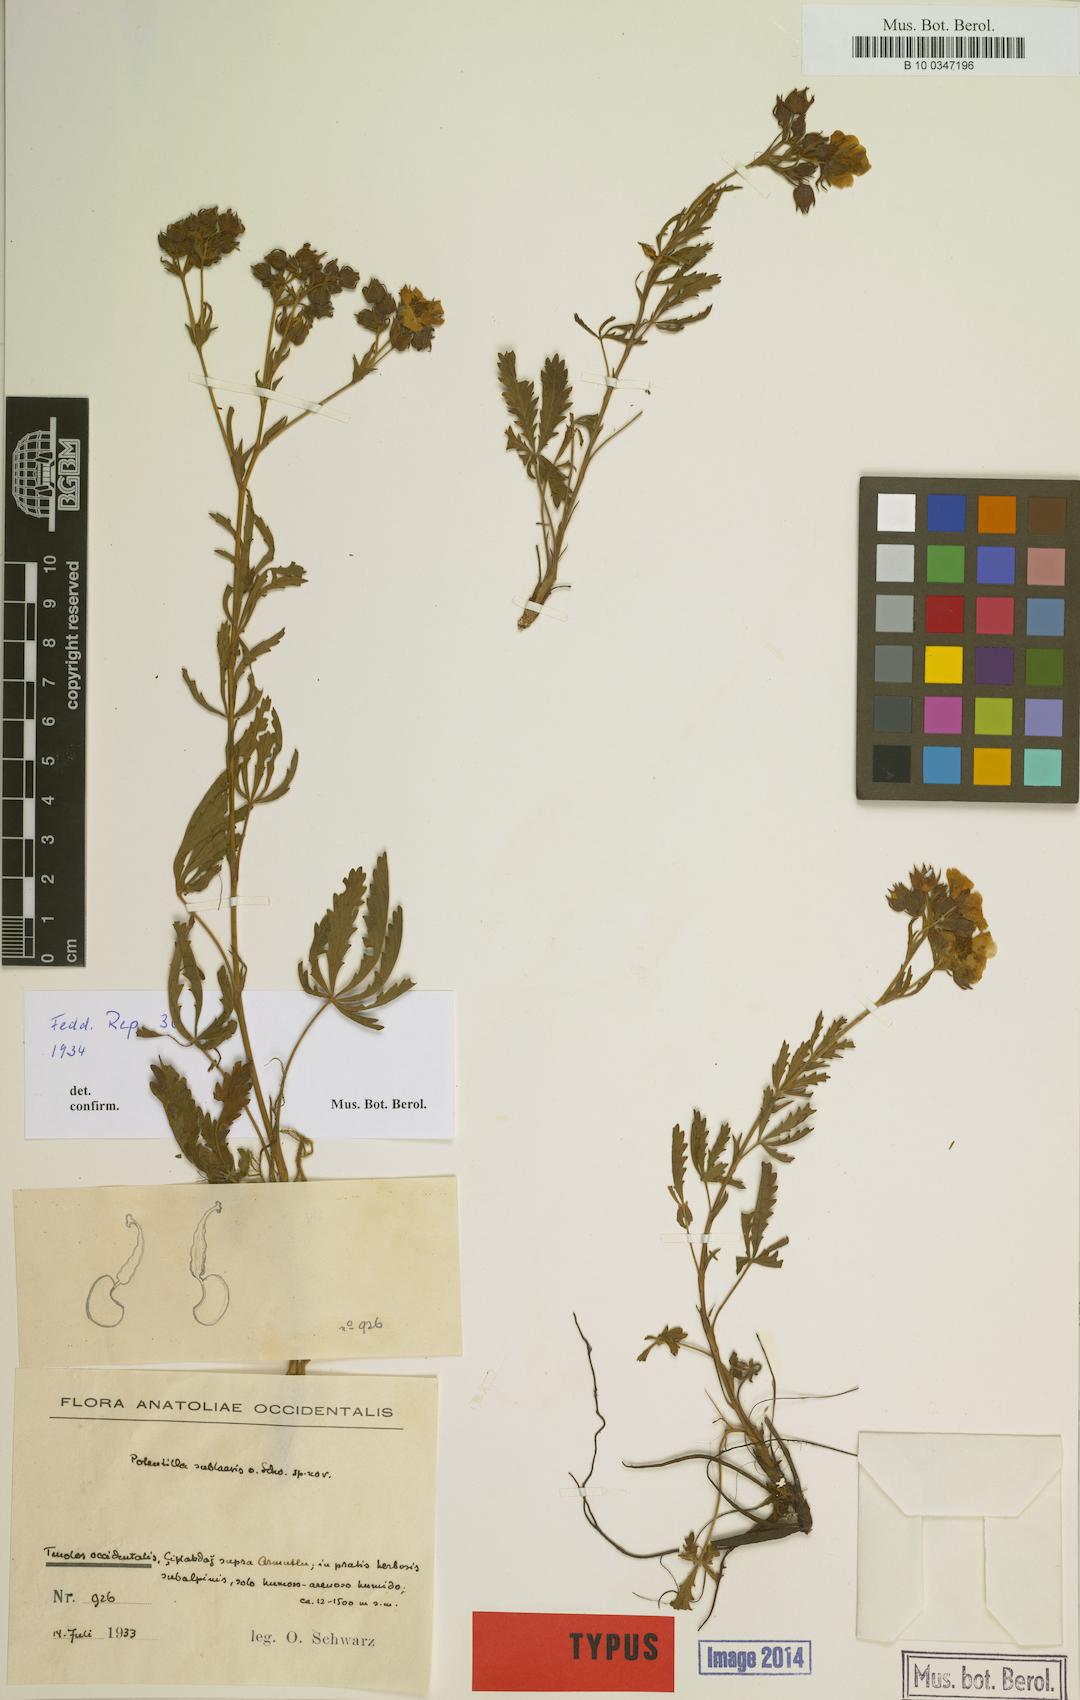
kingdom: Plantae
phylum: Tracheophyta
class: Magnoliopsida
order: Rosales
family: Rosaceae
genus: Potentilla
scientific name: Potentilla sublaevis
